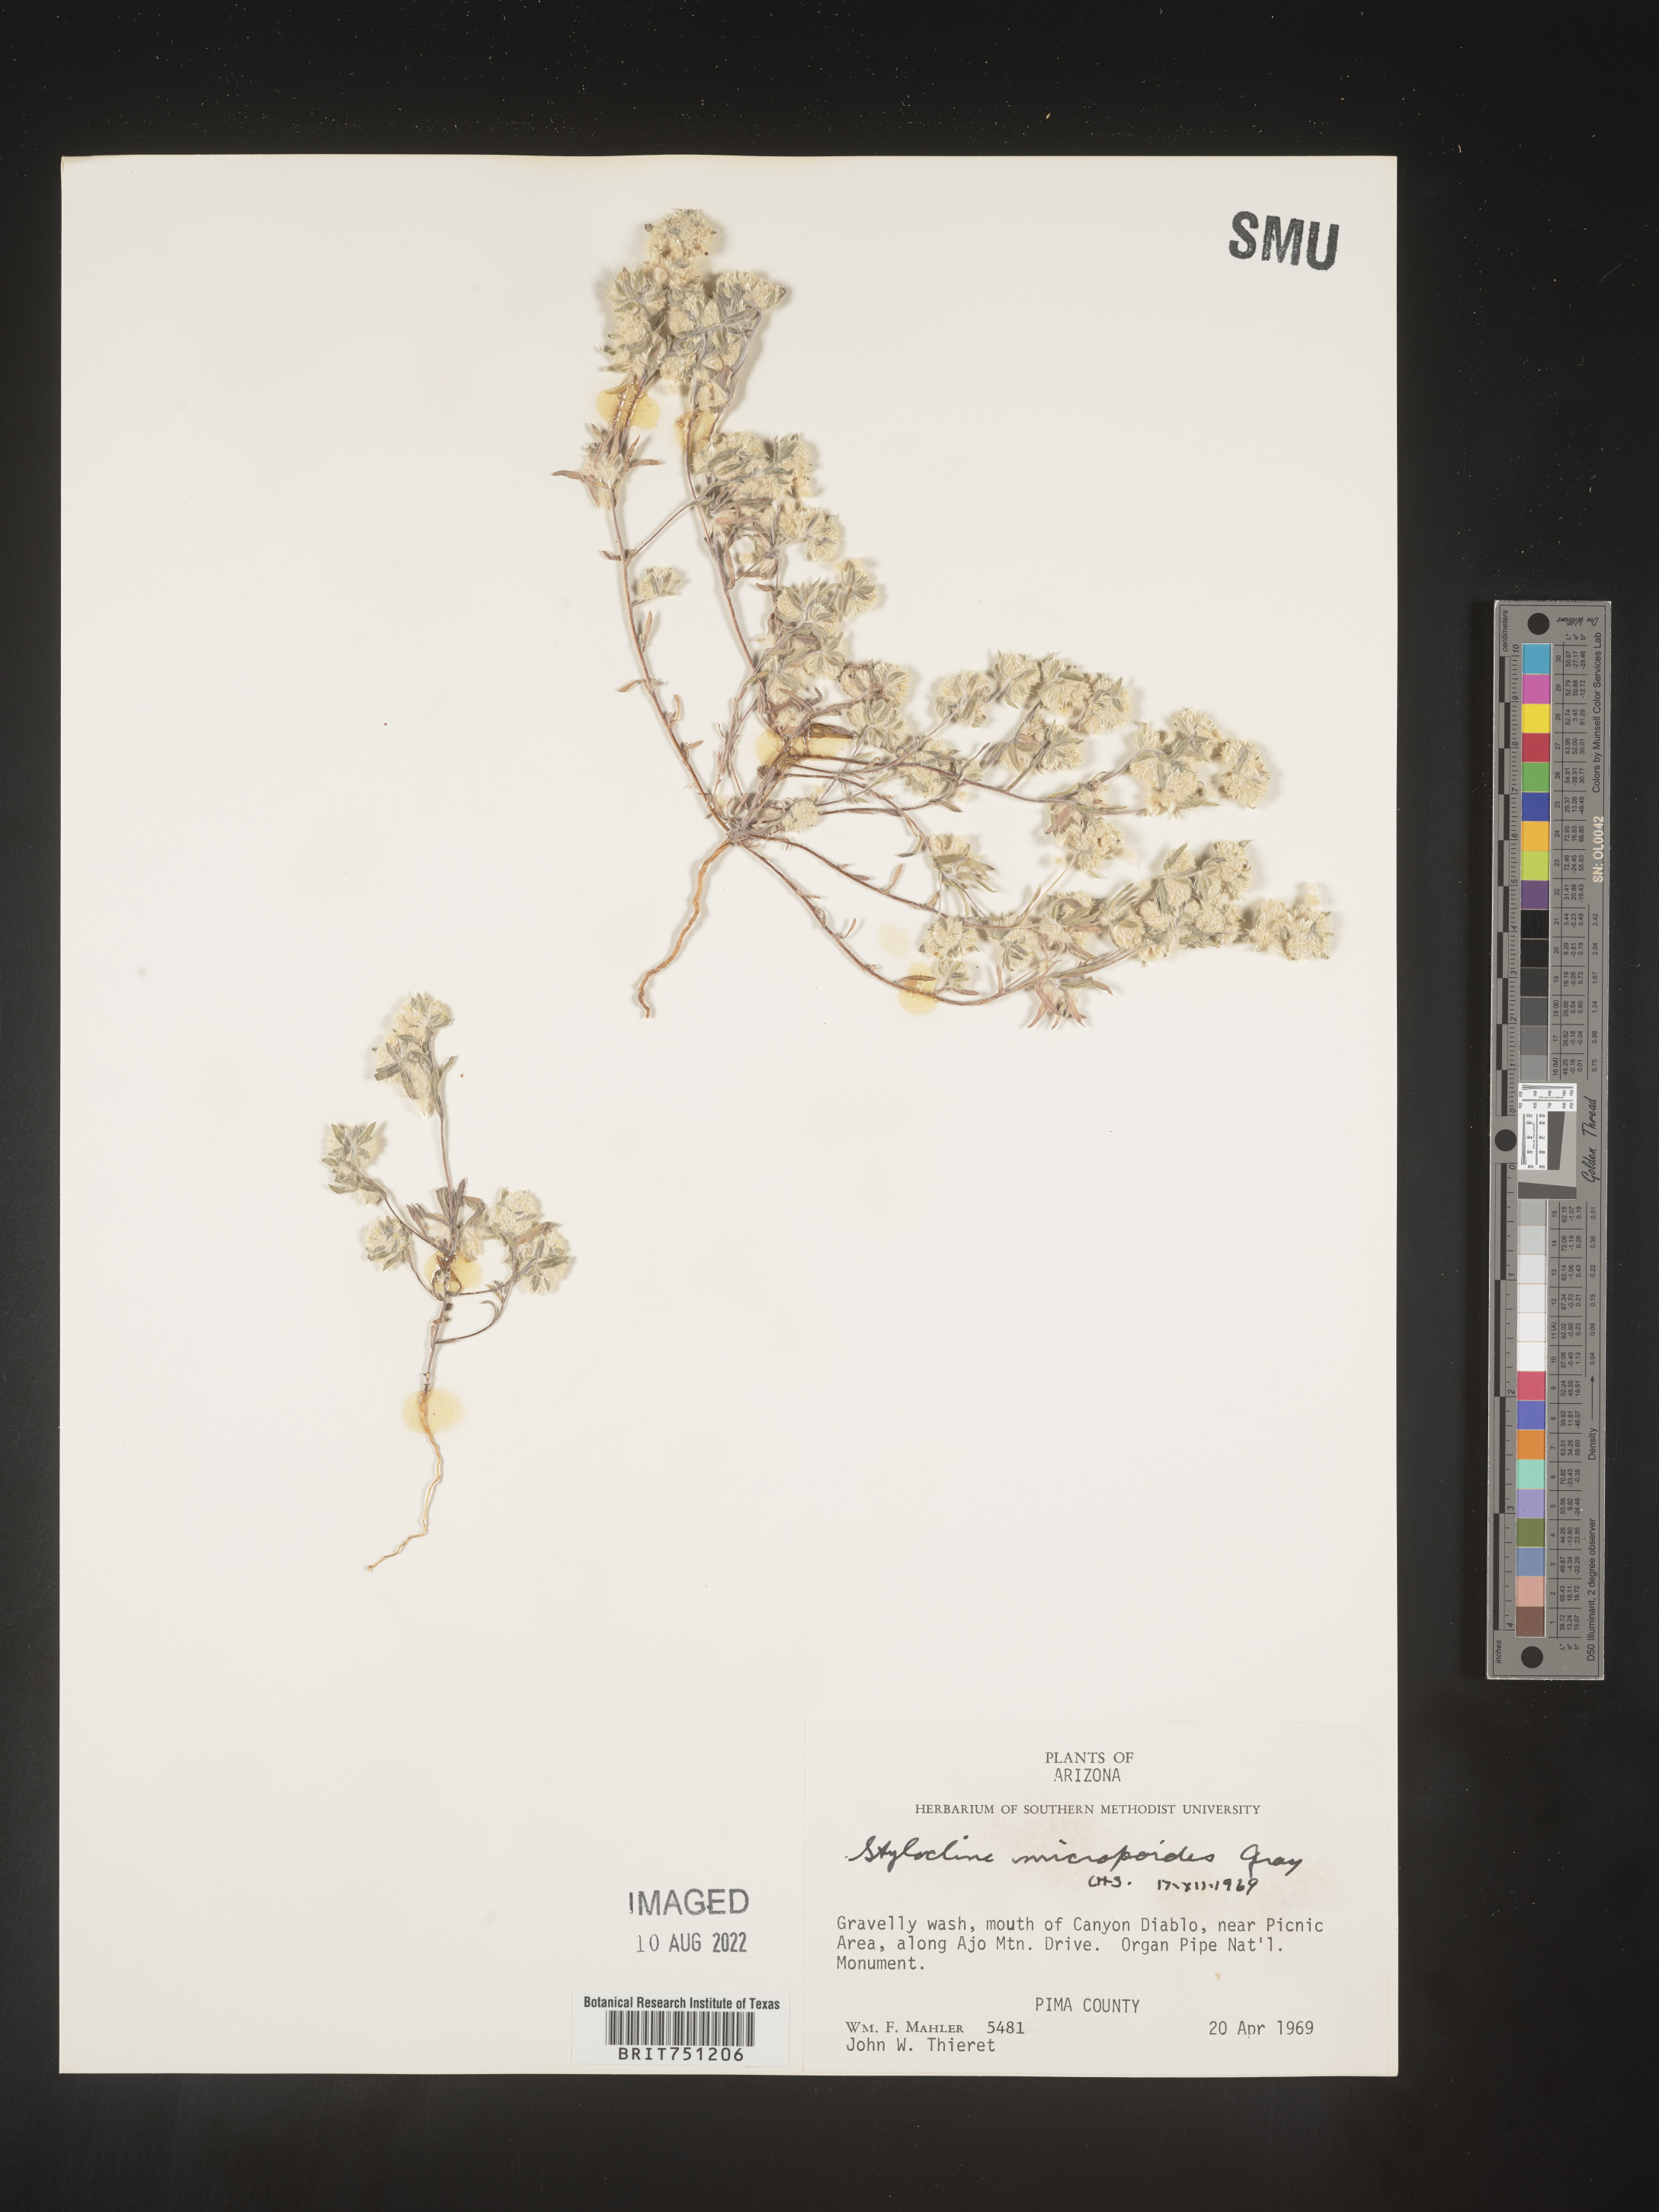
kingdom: Plantae
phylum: Tracheophyta
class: Magnoliopsida
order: Asterales
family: Asteraceae
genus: Stylocline
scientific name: Stylocline
